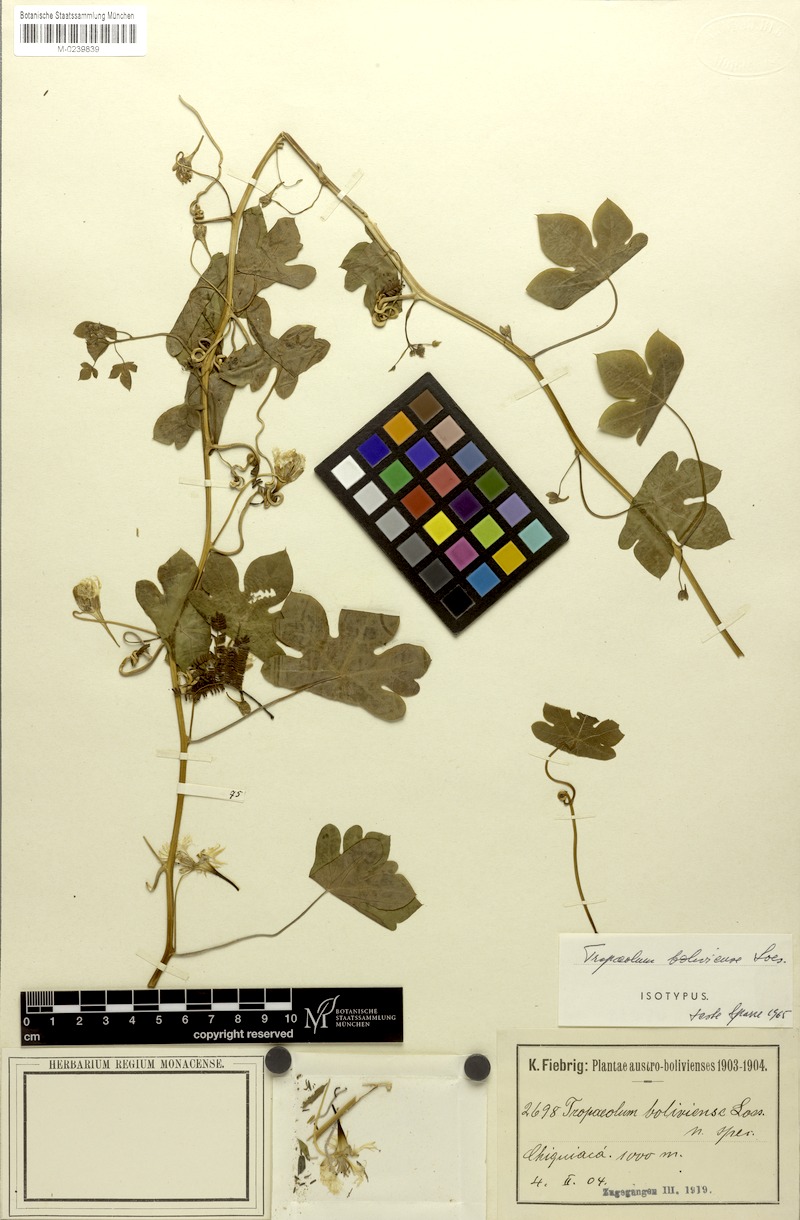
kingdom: Plantae
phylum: Tracheophyta
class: Magnoliopsida
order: Brassicales
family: Tropaeolaceae
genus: Tropaeolum
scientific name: Tropaeolum boliviense
